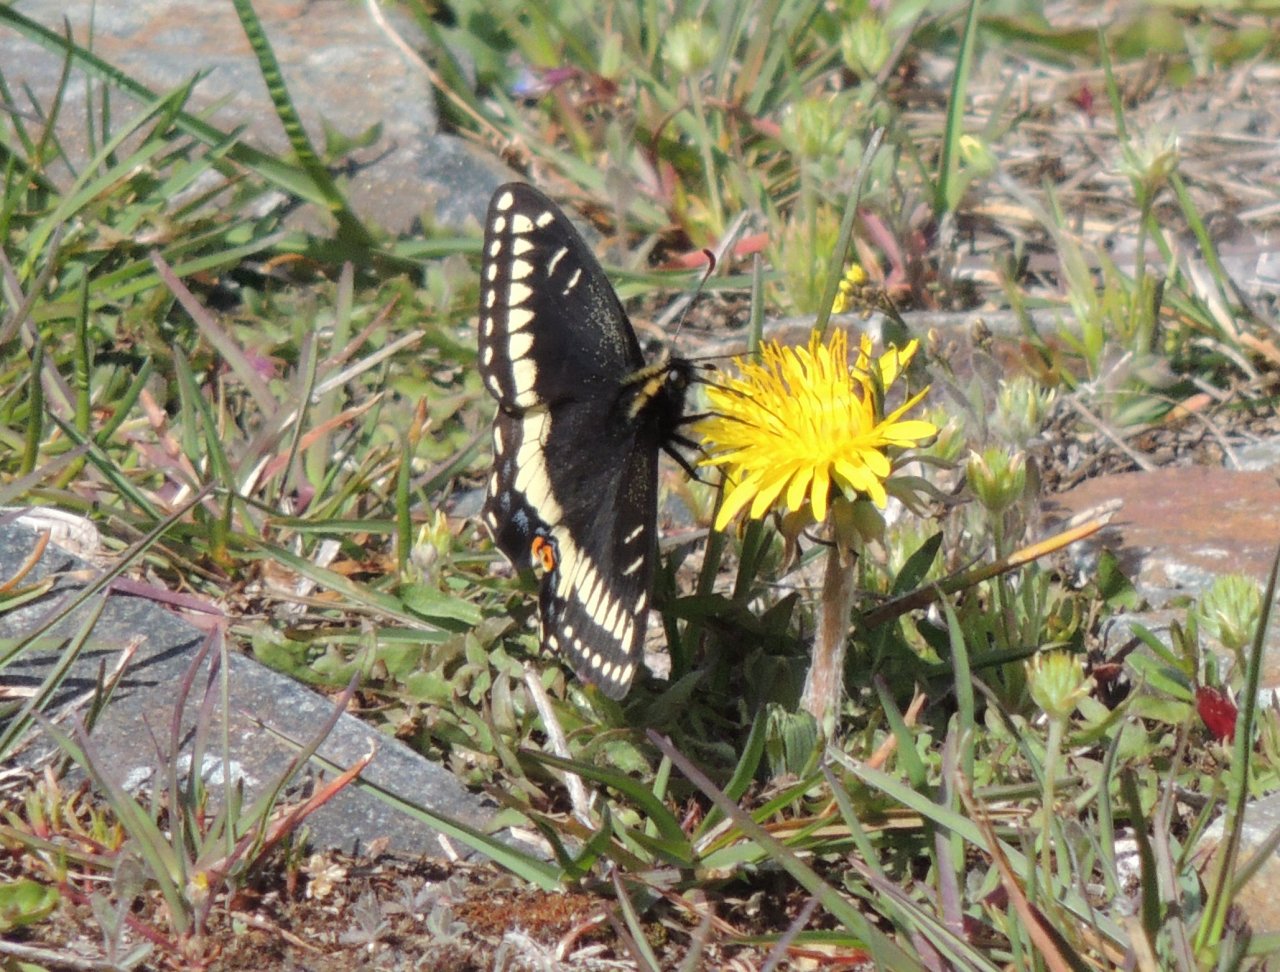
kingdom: Animalia
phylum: Arthropoda
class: Insecta
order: Lepidoptera
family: Papilionidae
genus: Papilio
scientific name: Papilio indra
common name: Indra Swallowtail
